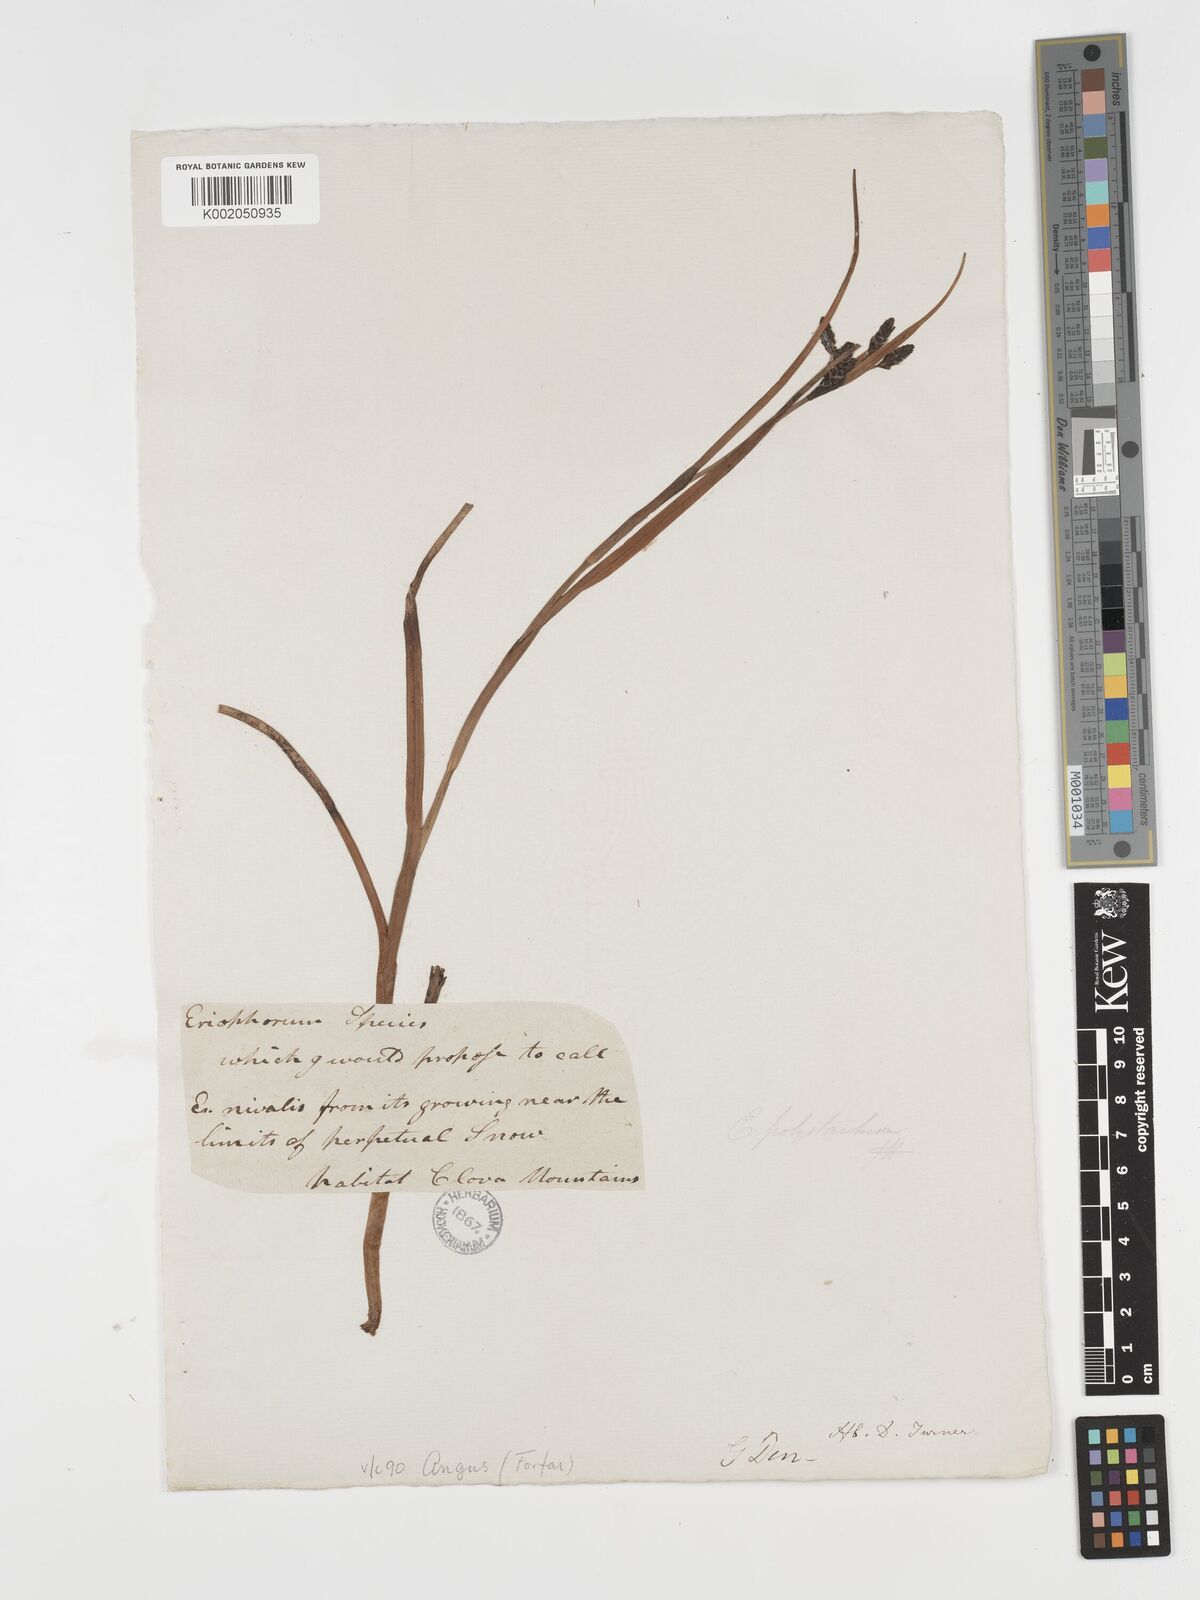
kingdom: Plantae
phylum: Tracheophyta
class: Liliopsida
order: Poales
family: Cyperaceae
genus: Eriophorum
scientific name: Eriophorum angustifolium
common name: Common cottongrass
